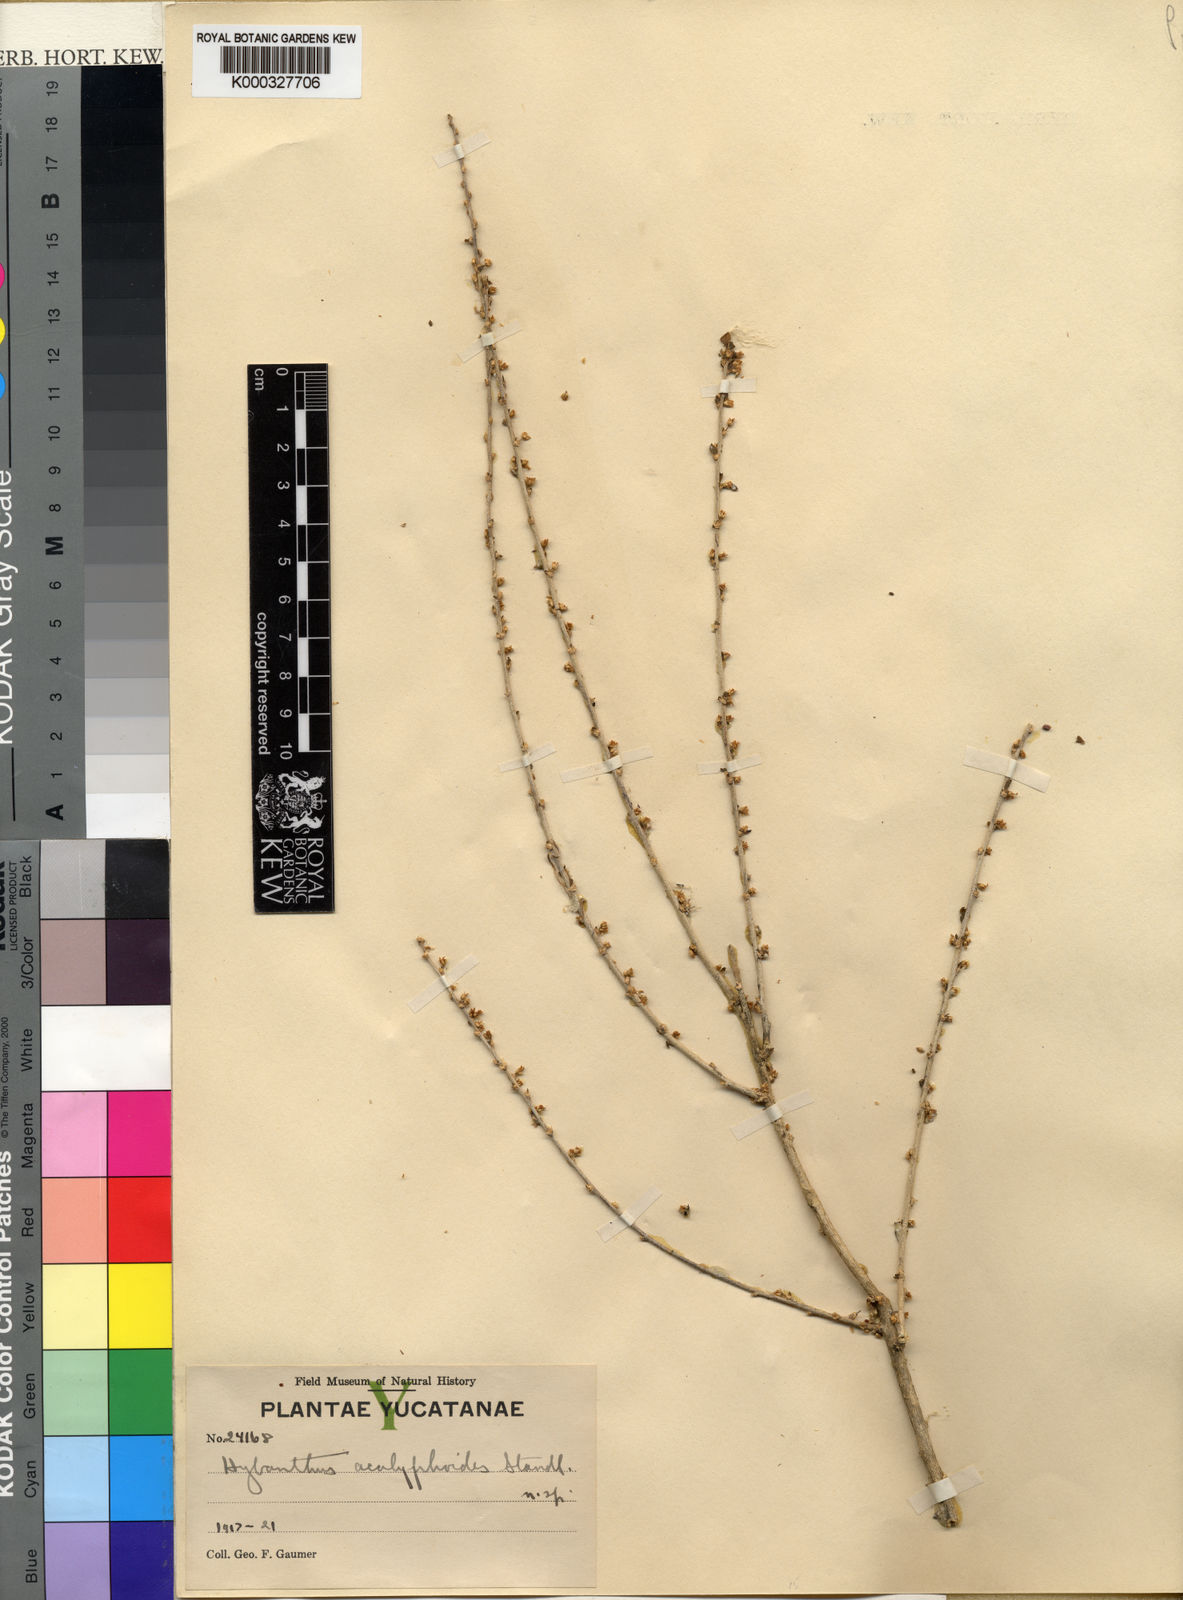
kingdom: Plantae
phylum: Tracheophyta
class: Magnoliopsida
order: Malpighiales
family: Violaceae
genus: Hybanthus
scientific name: Hybanthus
